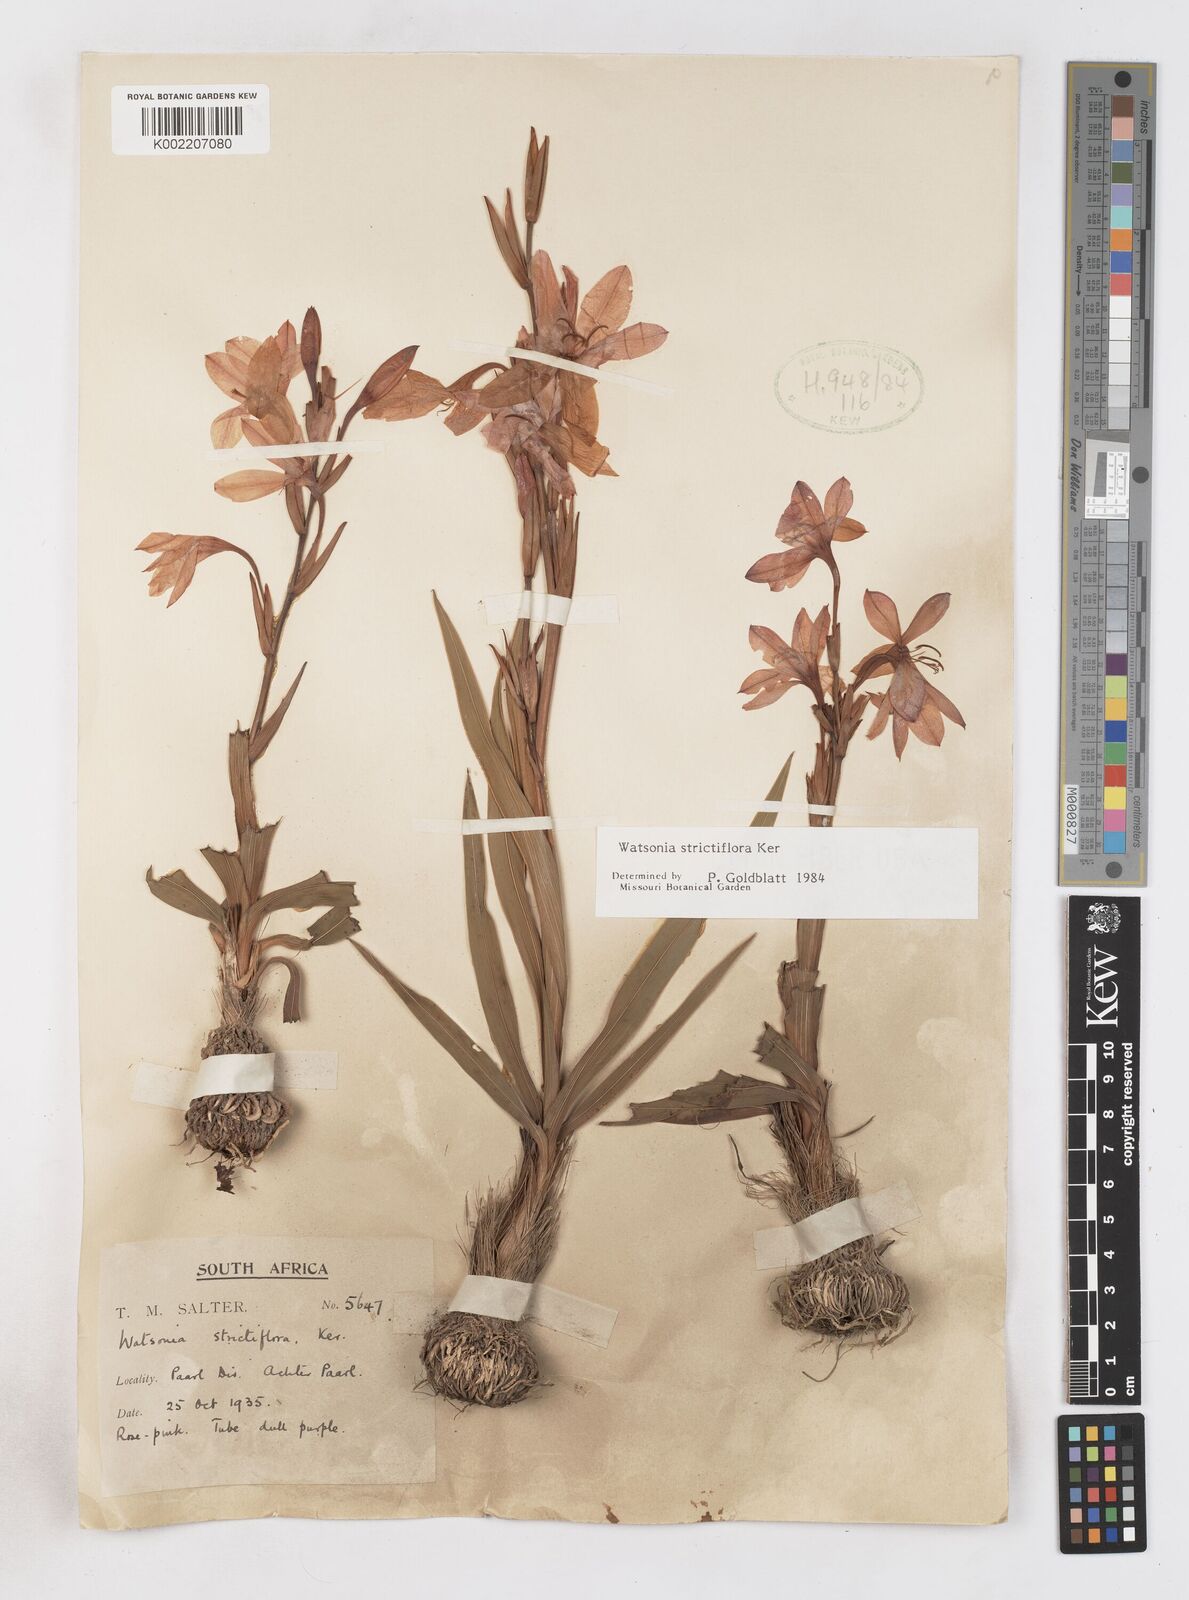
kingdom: Plantae
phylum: Tracheophyta
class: Liliopsida
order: Asparagales
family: Iridaceae
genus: Watsonia
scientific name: Watsonia strictiflora
